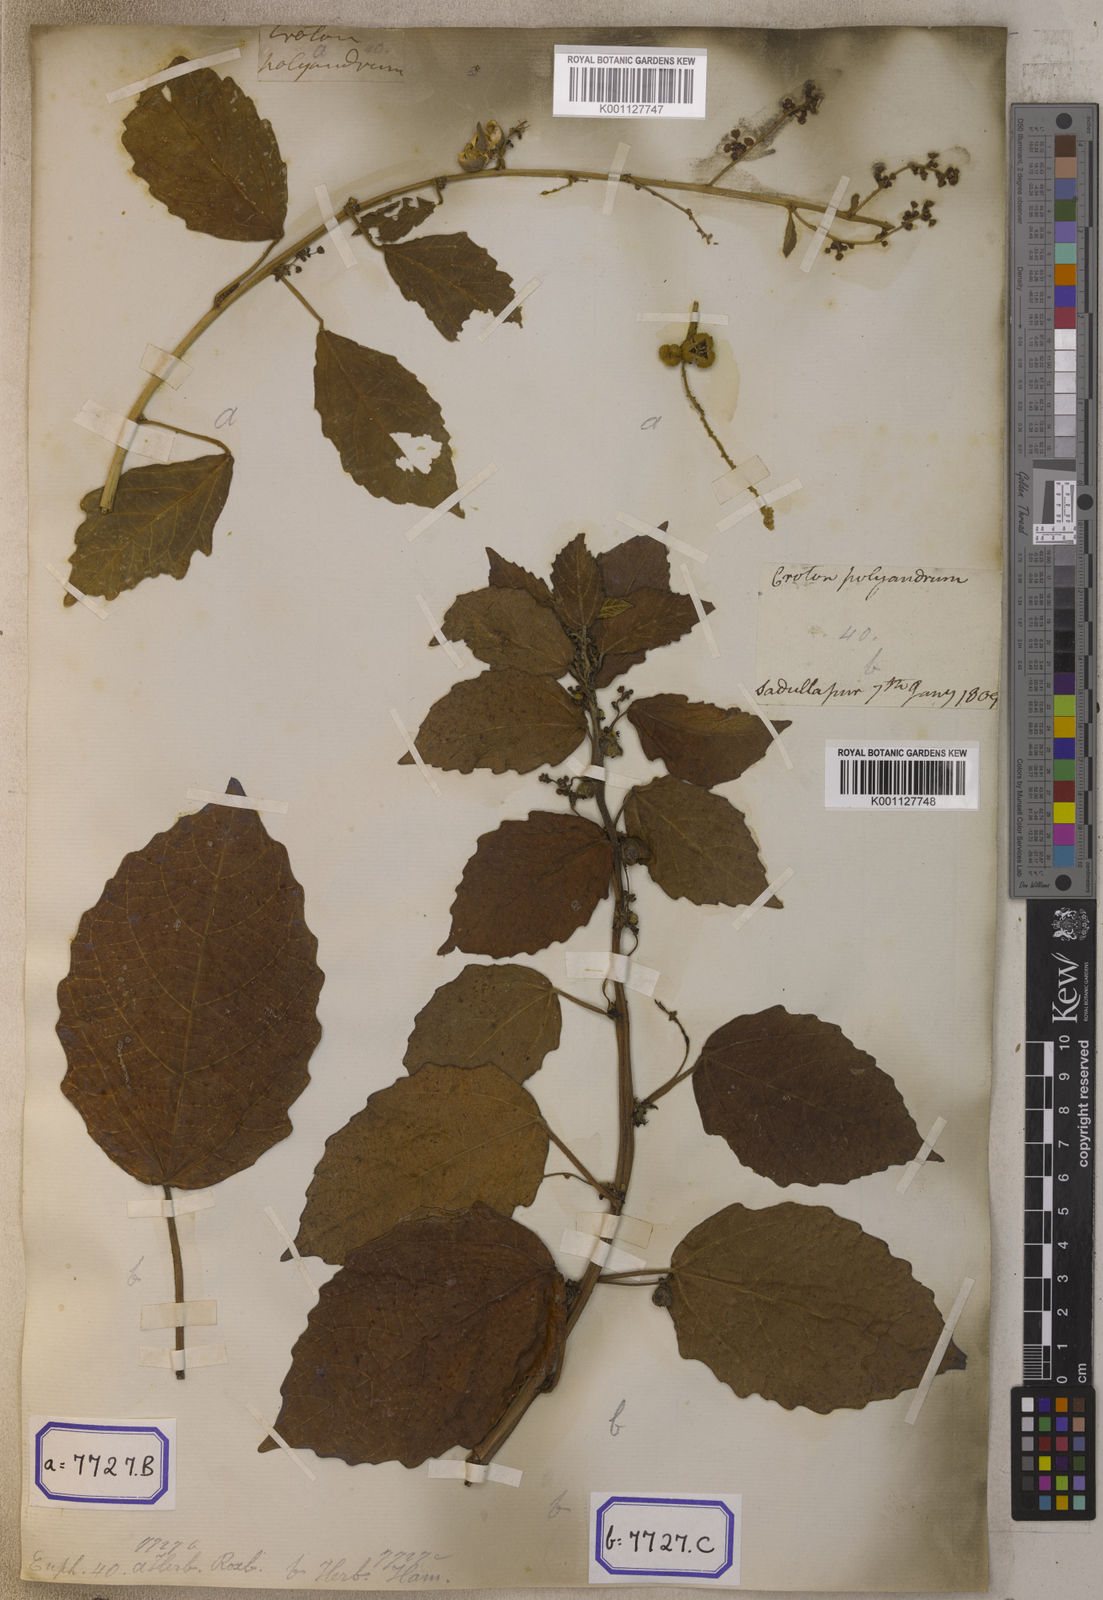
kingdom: Plantae
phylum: Tracheophyta
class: Magnoliopsida
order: Malpighiales
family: Euphorbiaceae
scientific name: Euphorbiaceae
